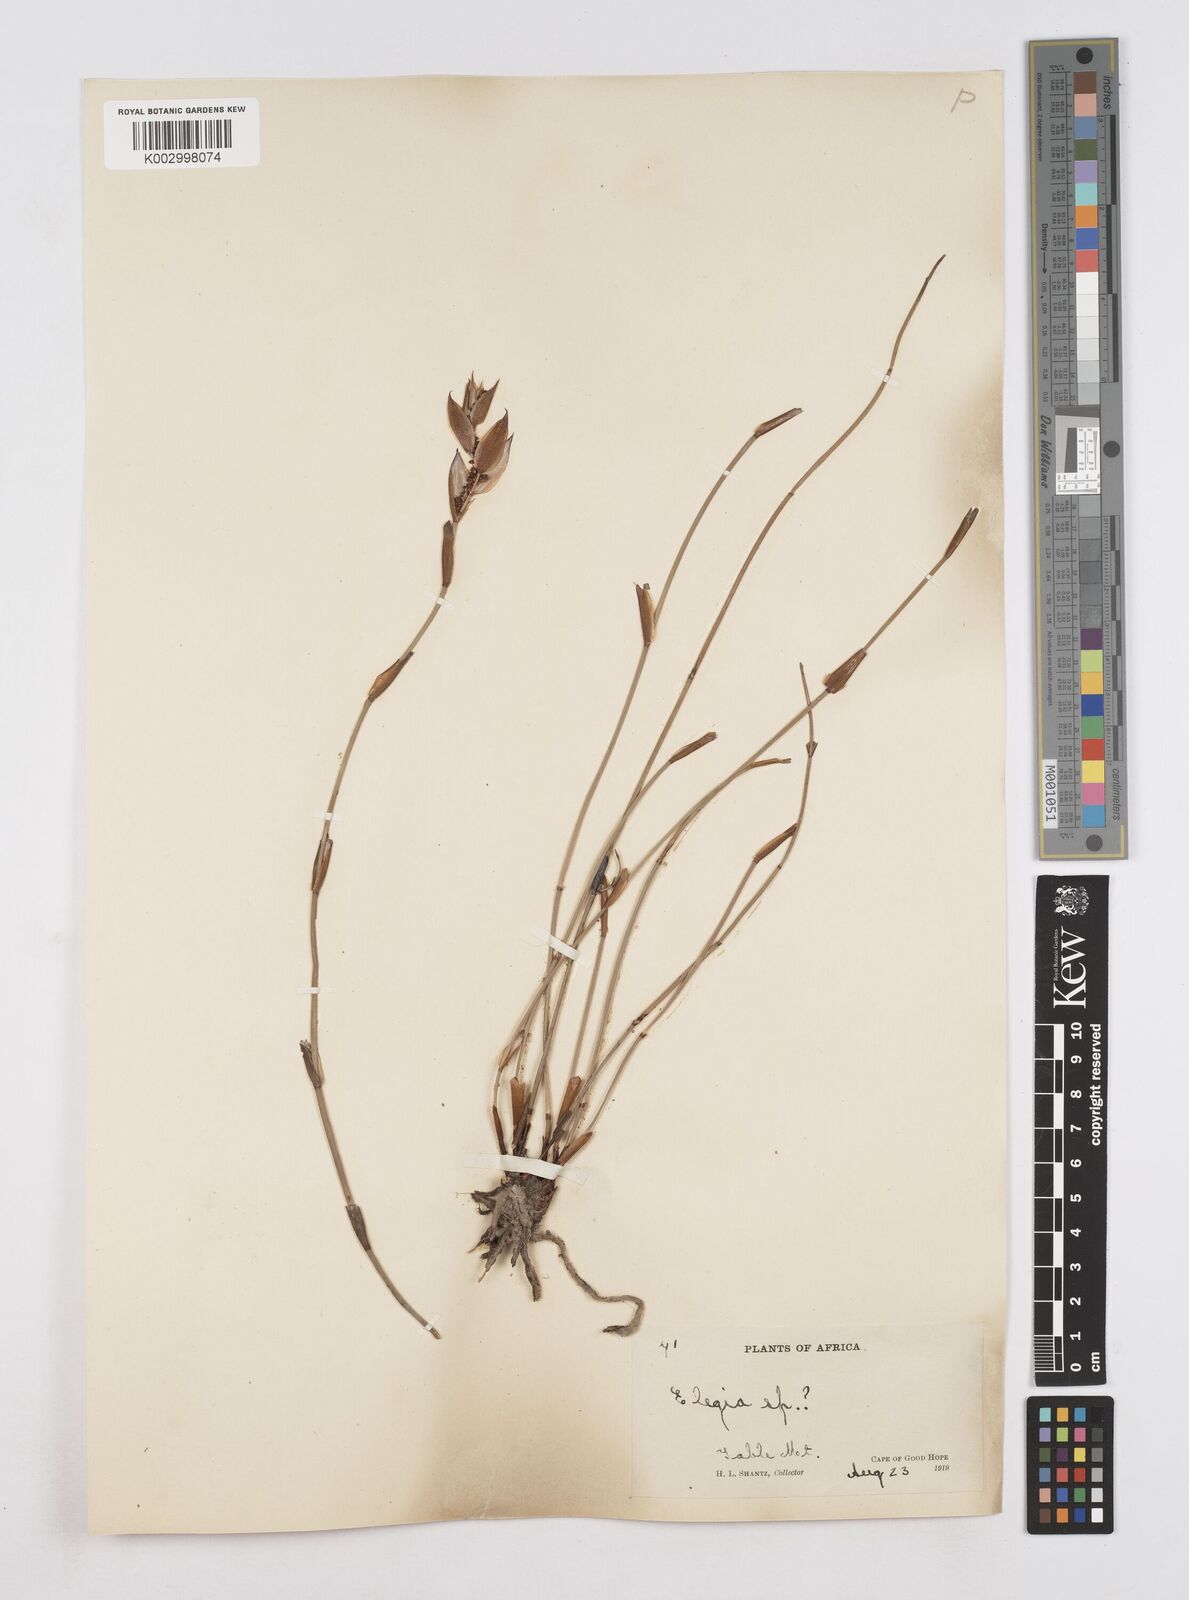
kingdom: Plantae
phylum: Tracheophyta
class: Liliopsida
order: Poales
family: Restionaceae
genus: Elegia
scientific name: Elegia
